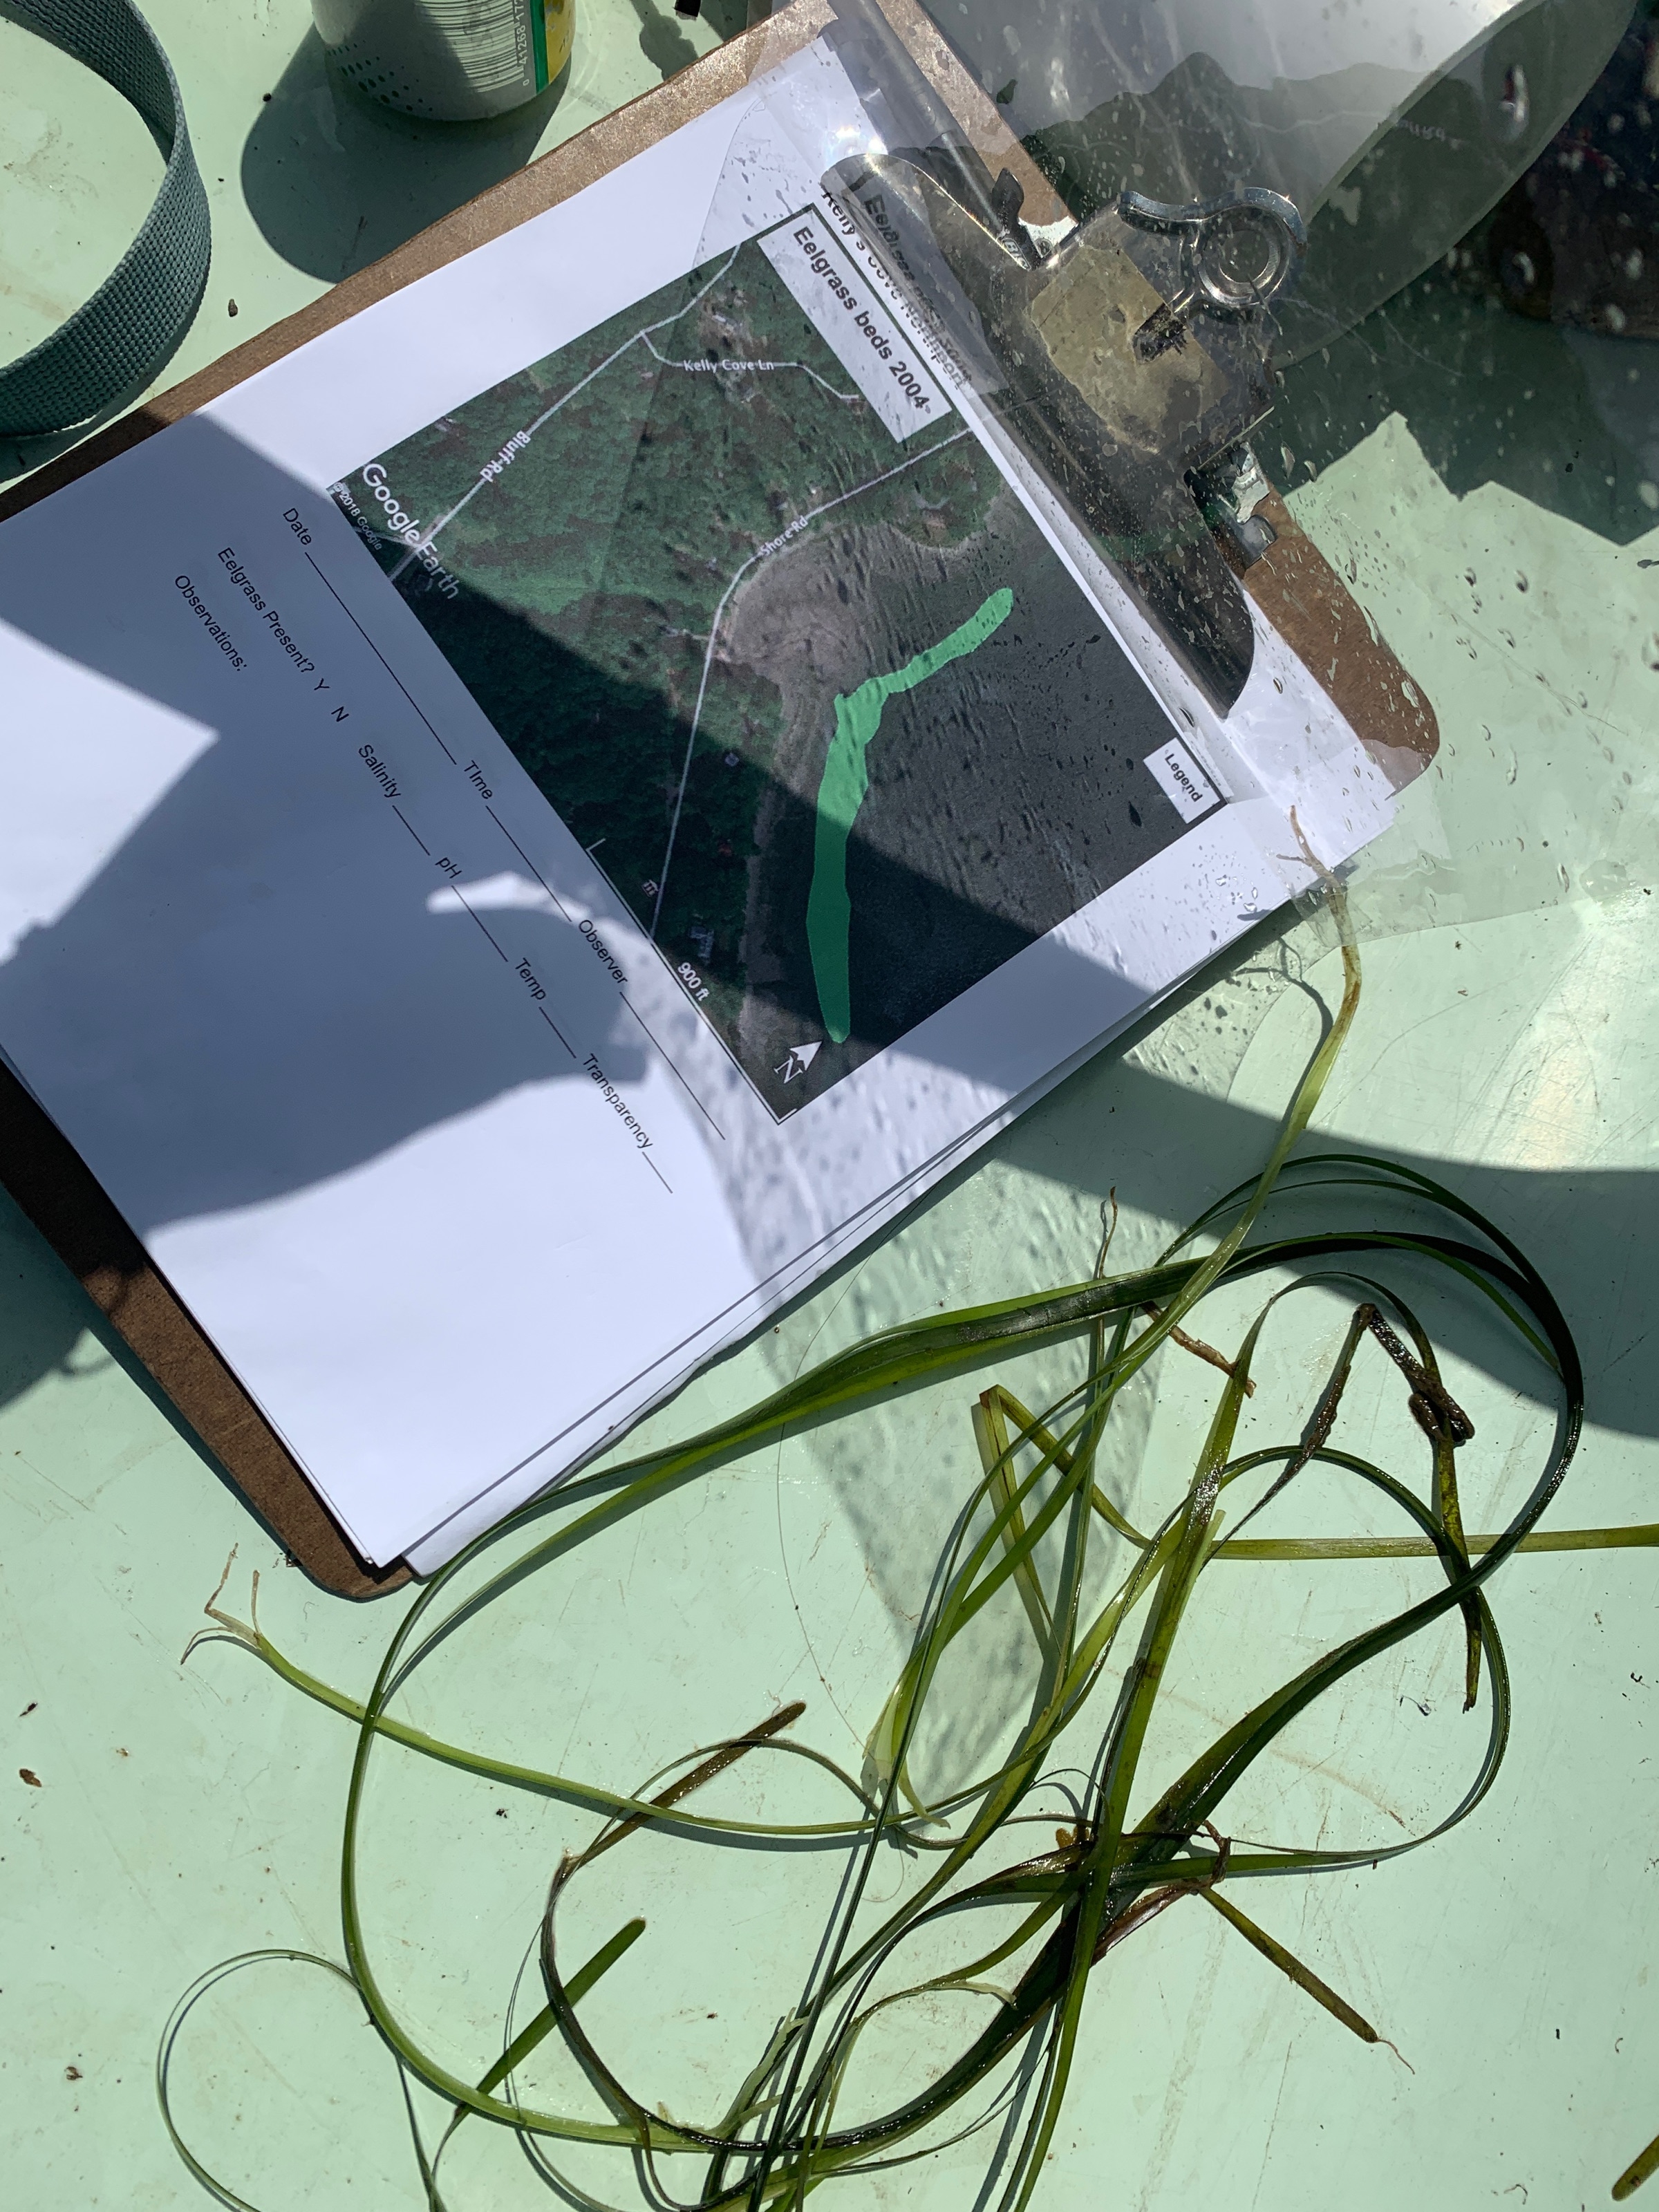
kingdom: Plantae
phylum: Tracheophyta
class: Liliopsida
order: Alismatales
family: Zosteraceae
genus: Zostera
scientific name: Zostera marina
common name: Eelgrass
